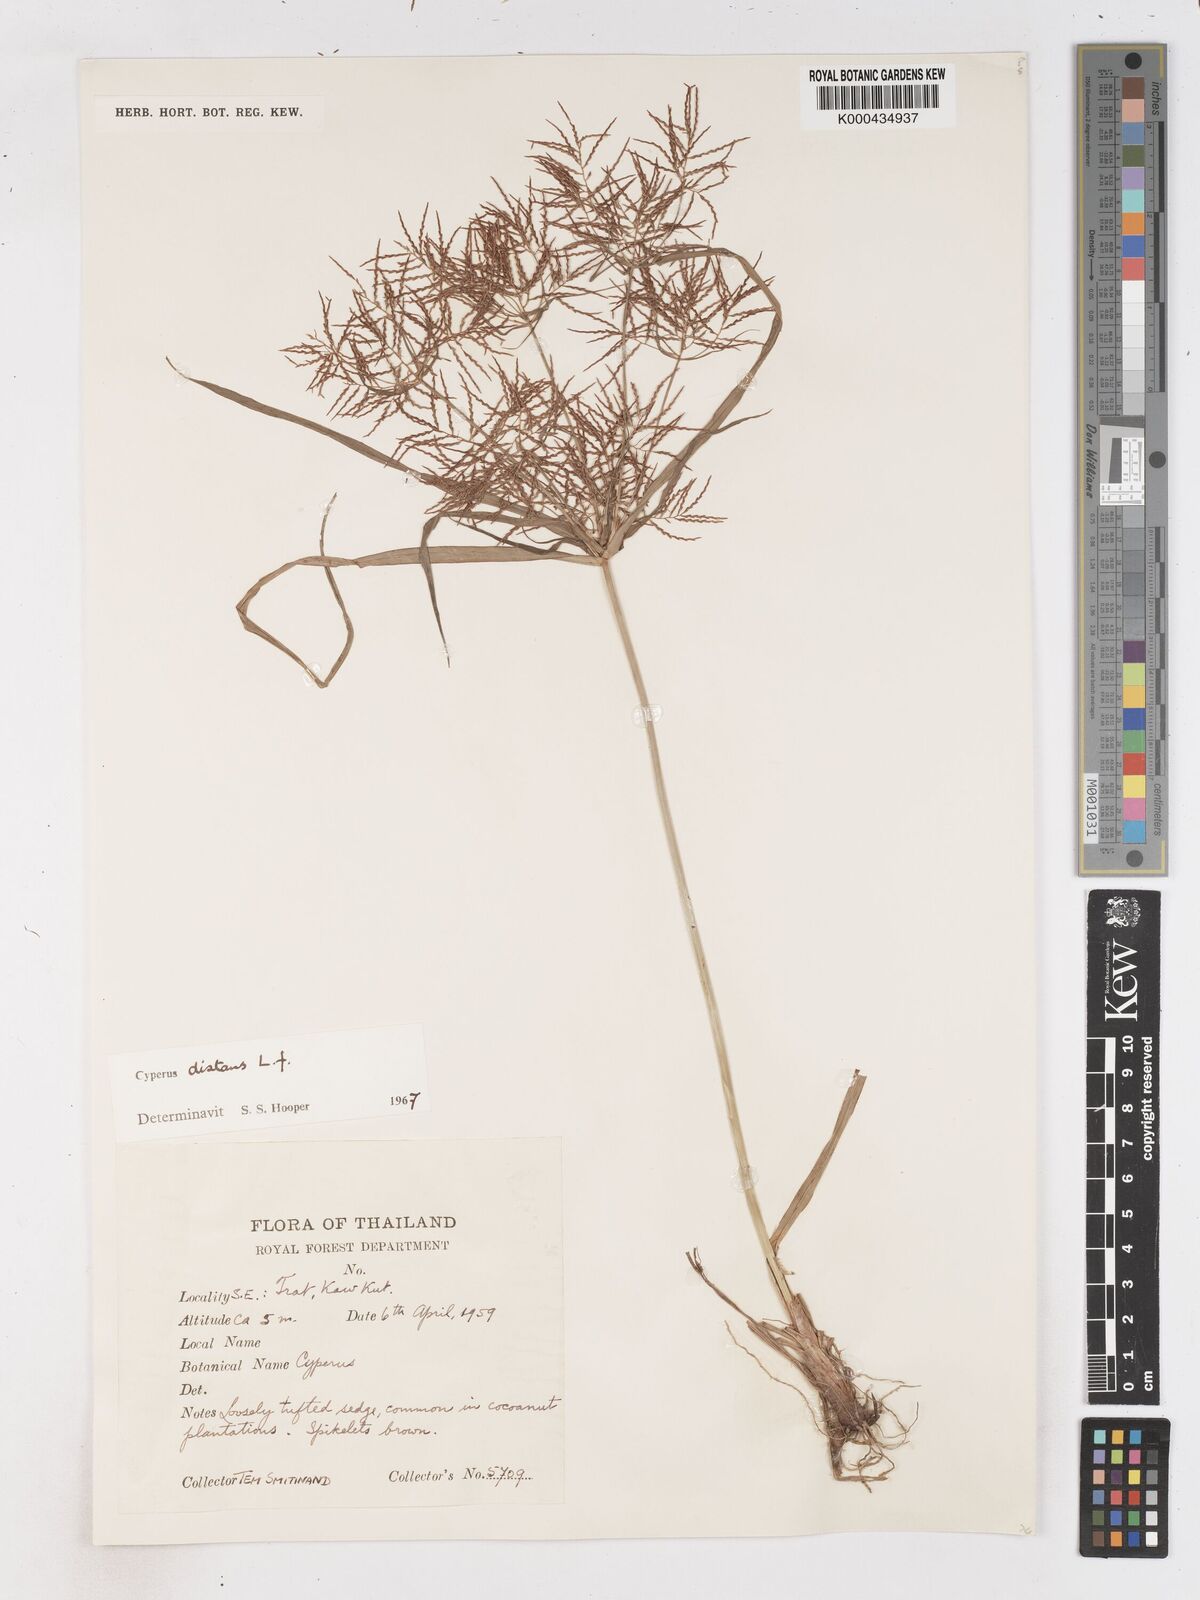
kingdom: Plantae
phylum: Tracheophyta
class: Liliopsida
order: Poales
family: Cyperaceae
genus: Cyperus
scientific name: Cyperus distans
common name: Slender cyperus
